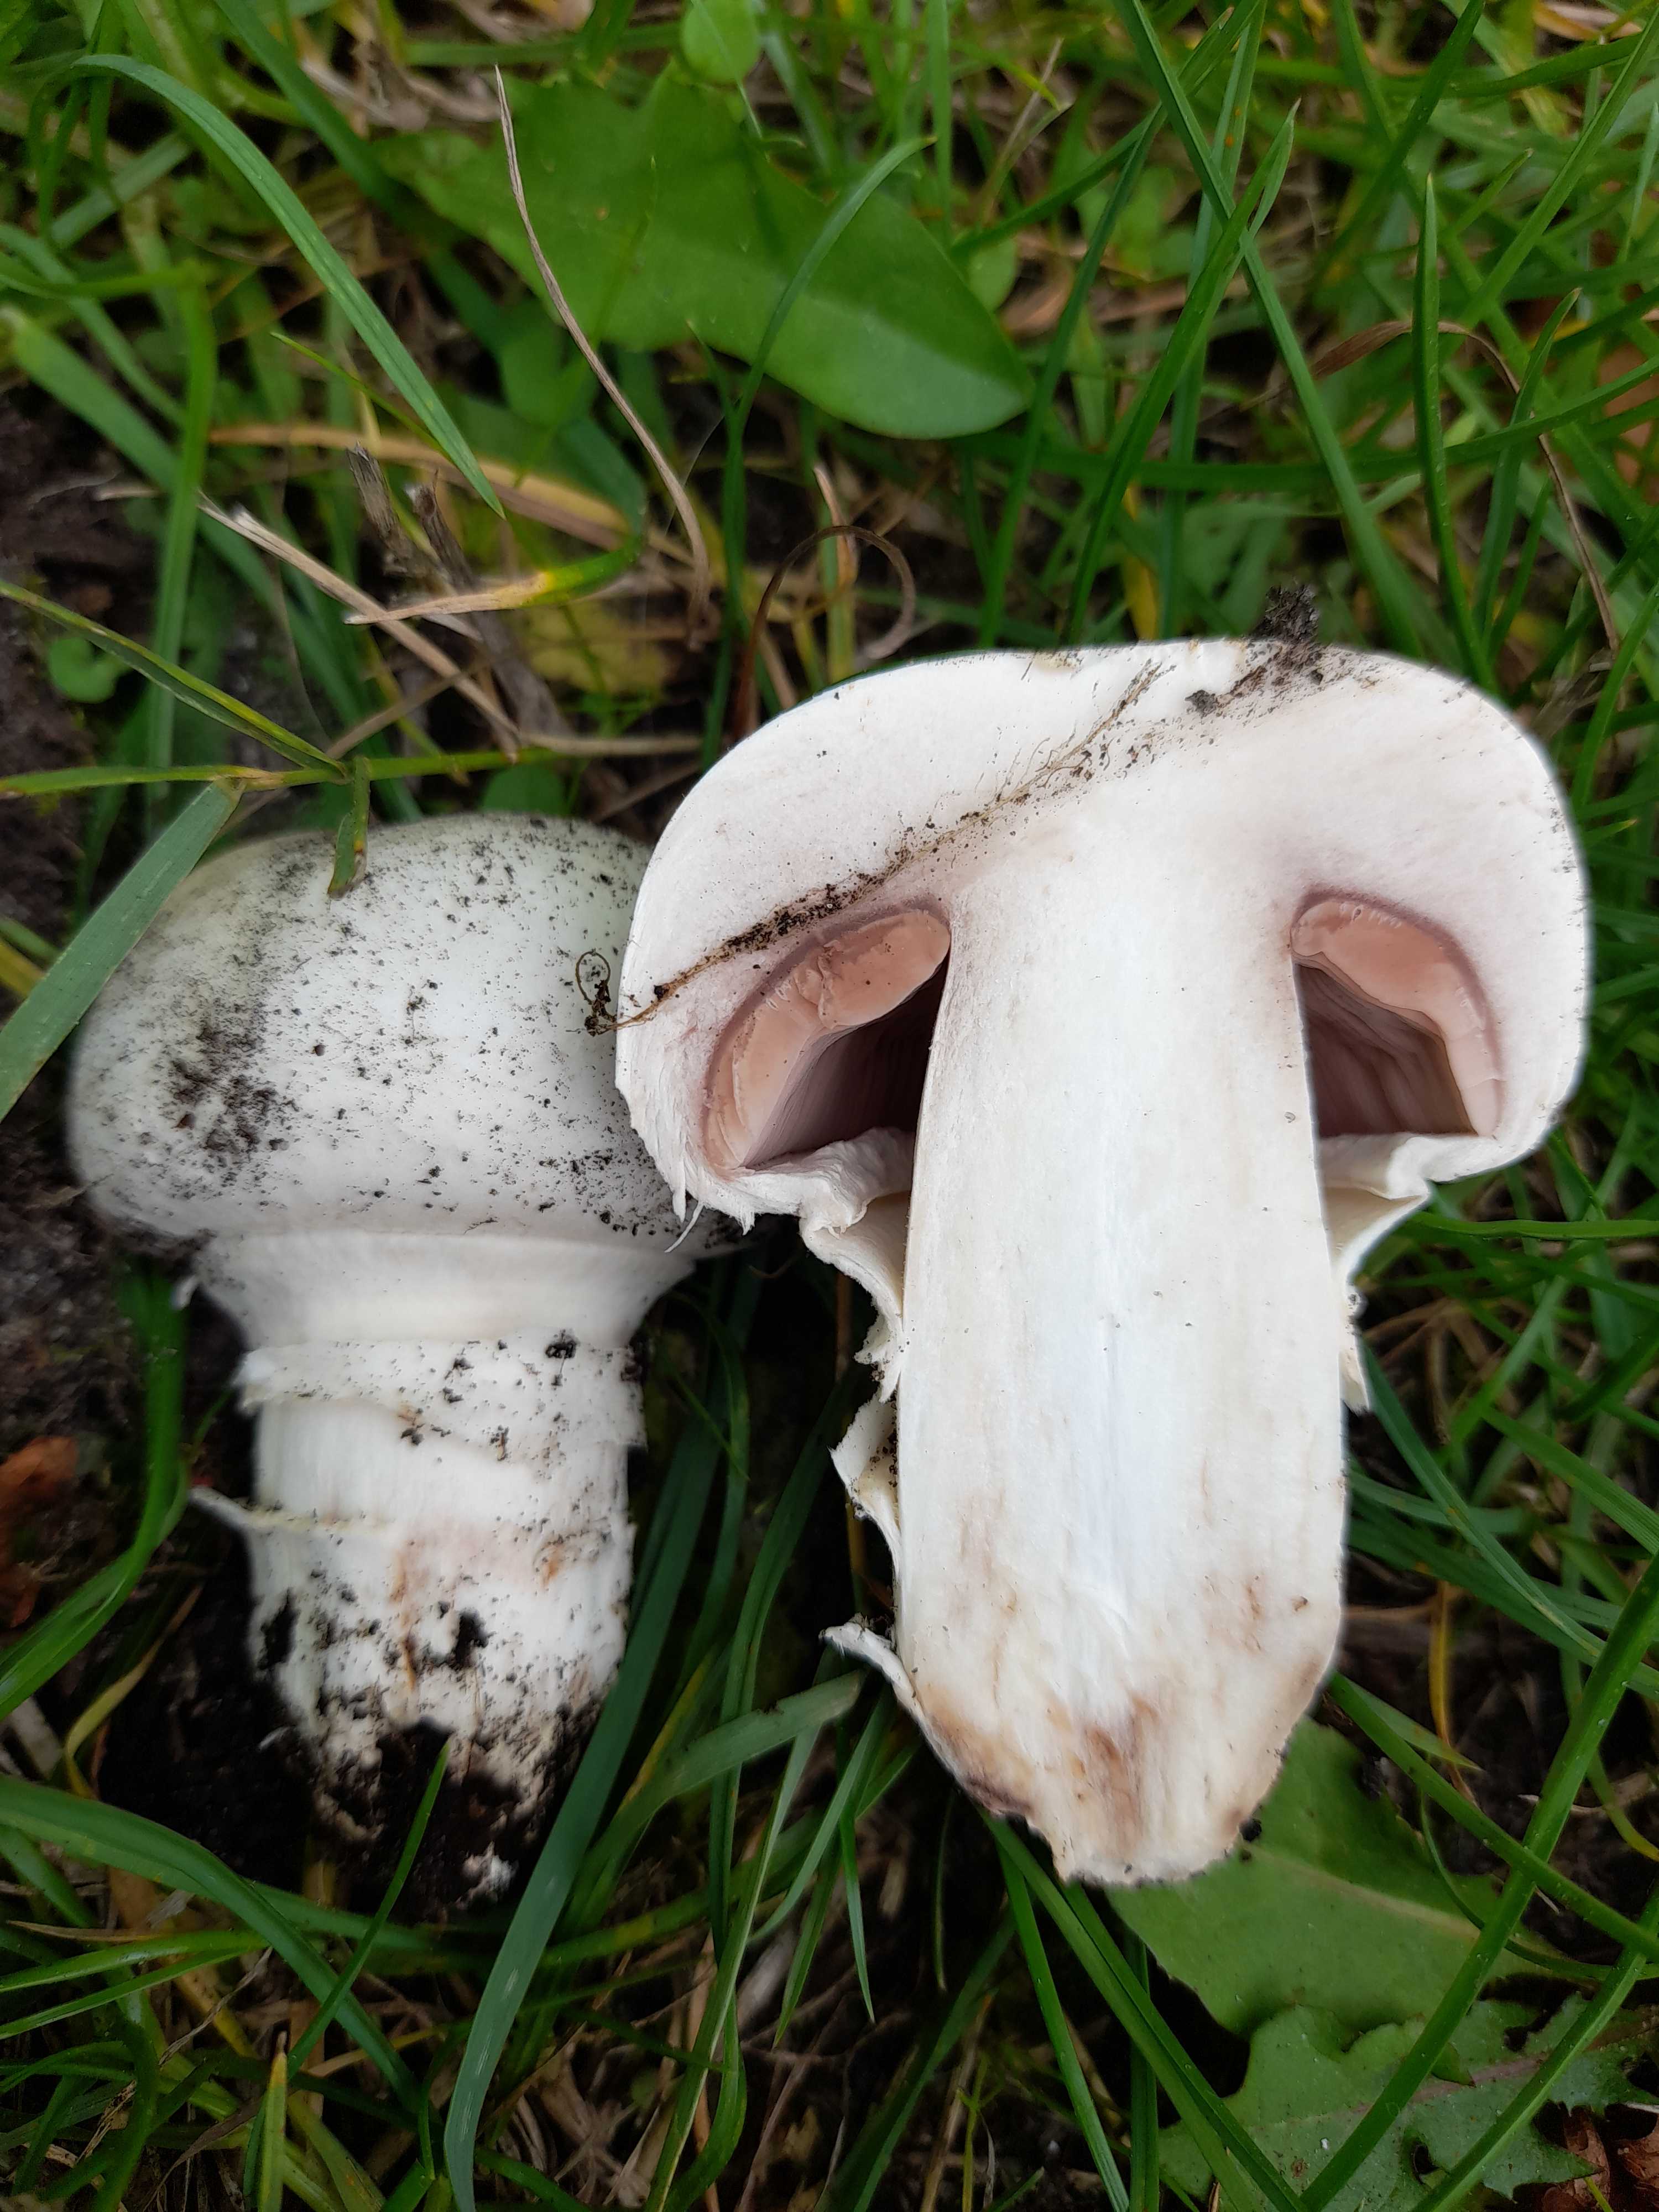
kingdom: Fungi
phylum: Basidiomycota
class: Agaricomycetes
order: Agaricales
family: Agaricaceae
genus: Agaricus
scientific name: Agaricus bitorquis
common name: vej-champignon
